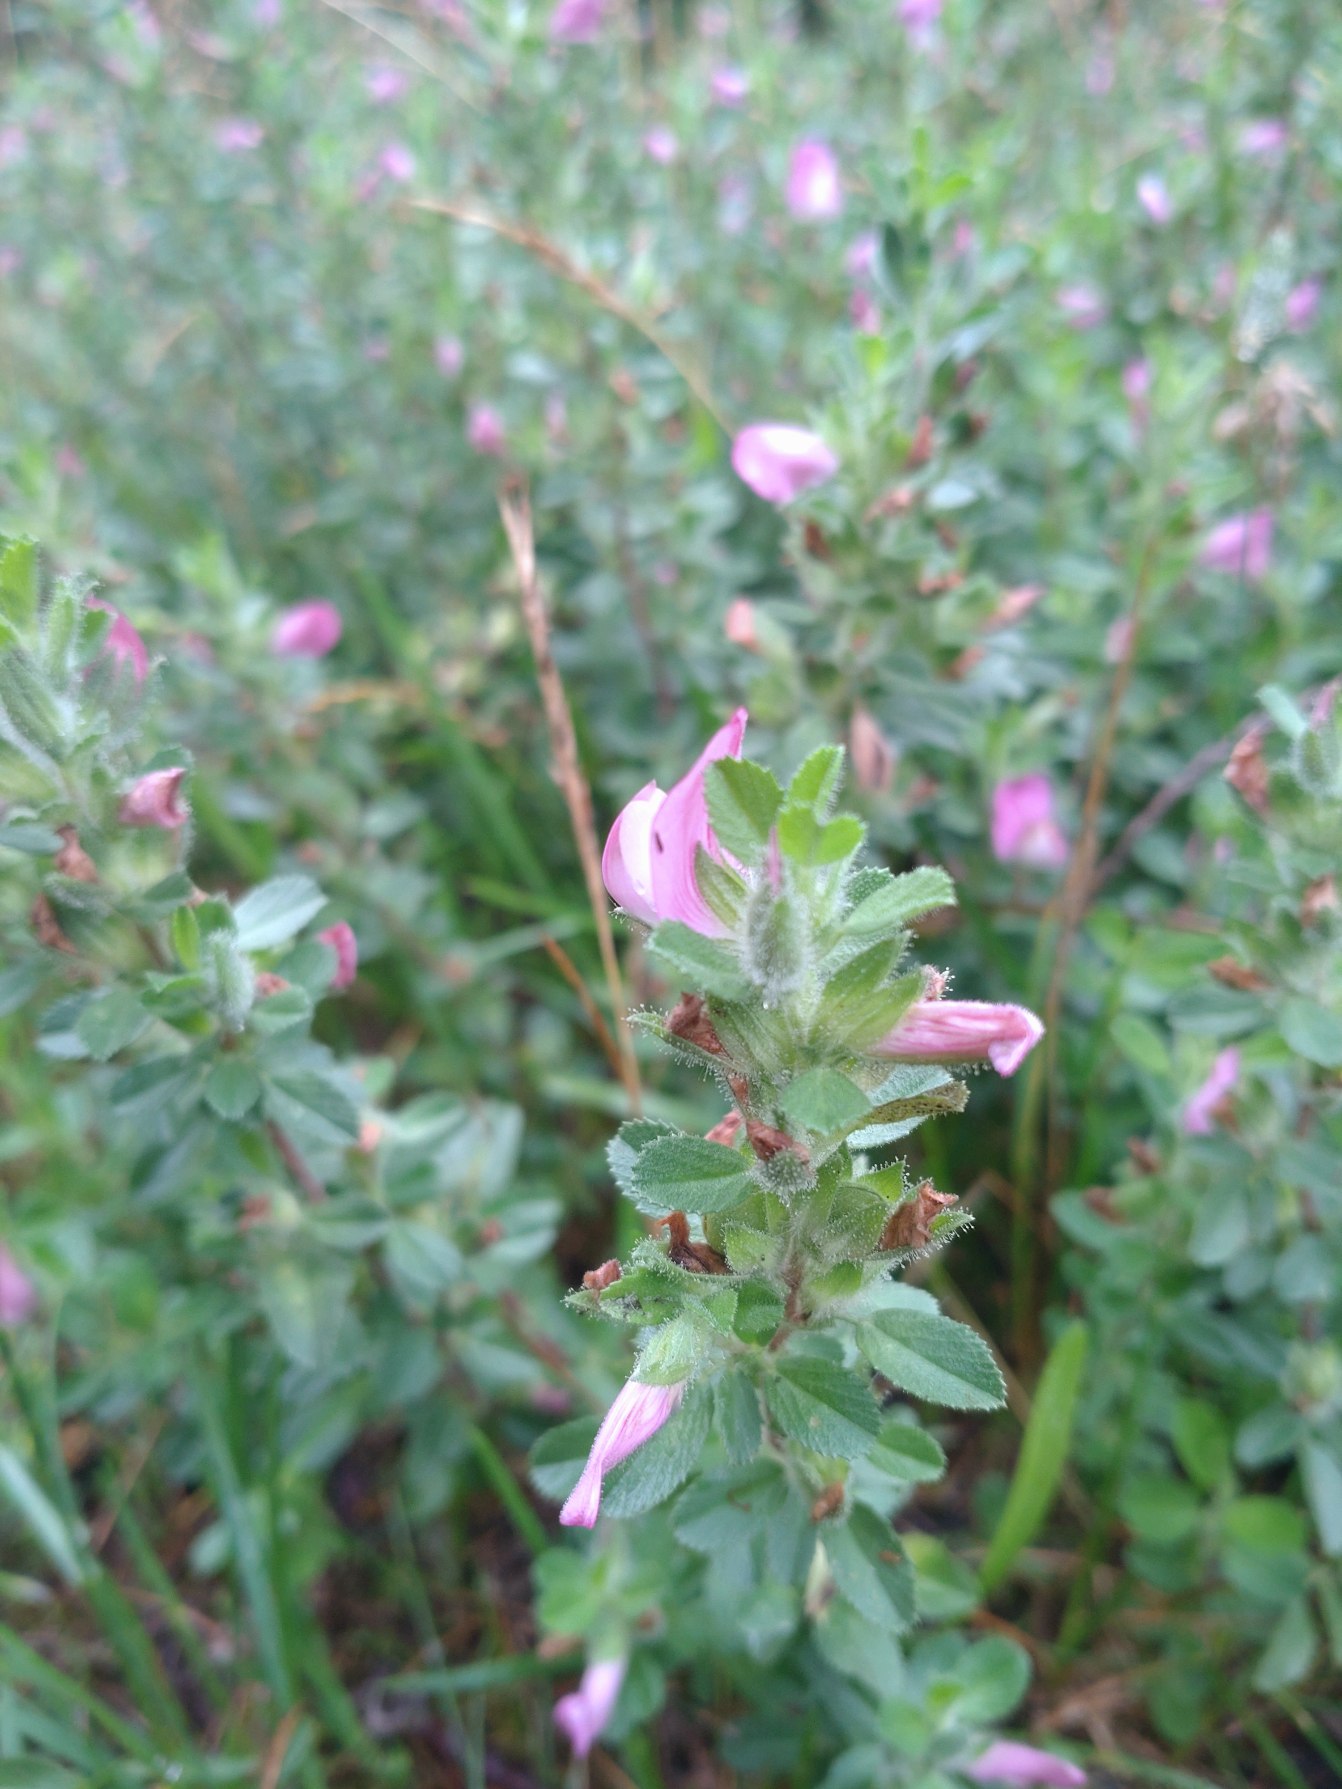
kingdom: Plantae
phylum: Tracheophyta
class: Magnoliopsida
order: Fabales
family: Fabaceae
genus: Ononis
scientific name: Ononis spinosa
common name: Mark-krageklo
